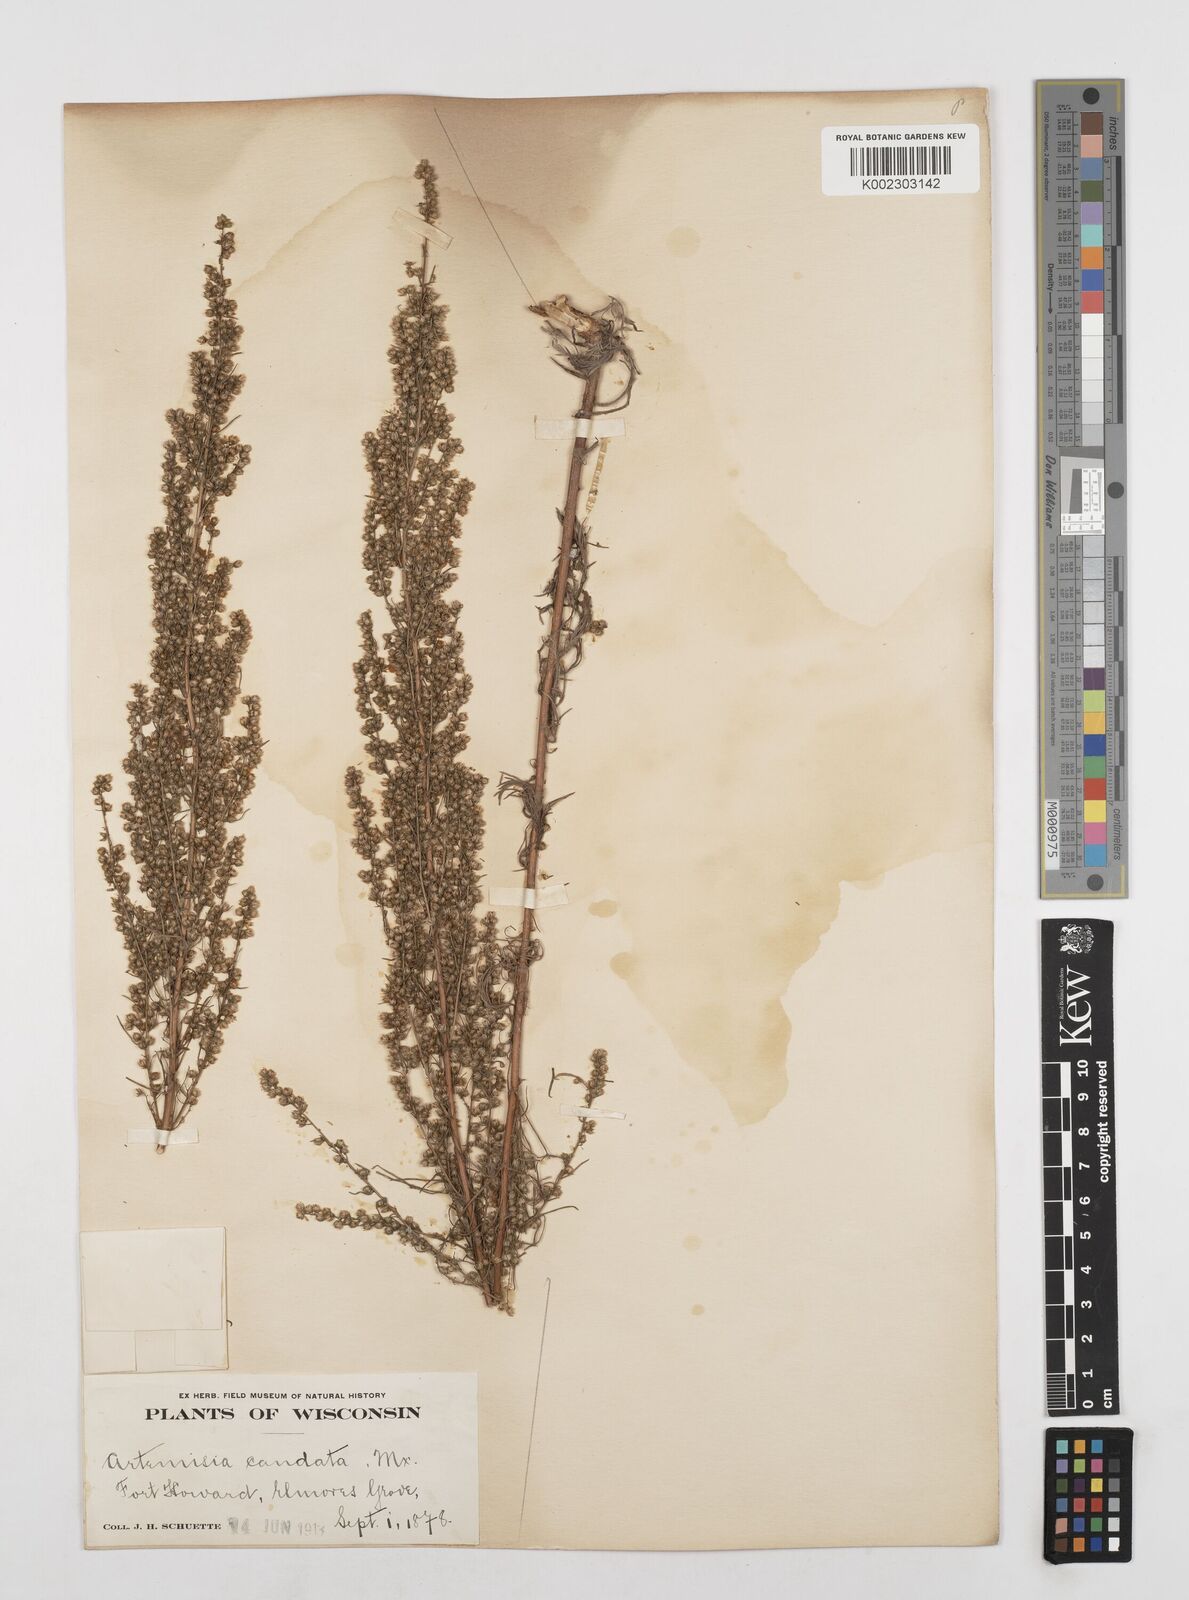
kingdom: Plantae
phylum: Tracheophyta
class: Magnoliopsida
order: Asterales
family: Asteraceae
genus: Artemisia
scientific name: Artemisia campestris
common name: Field wormwood
